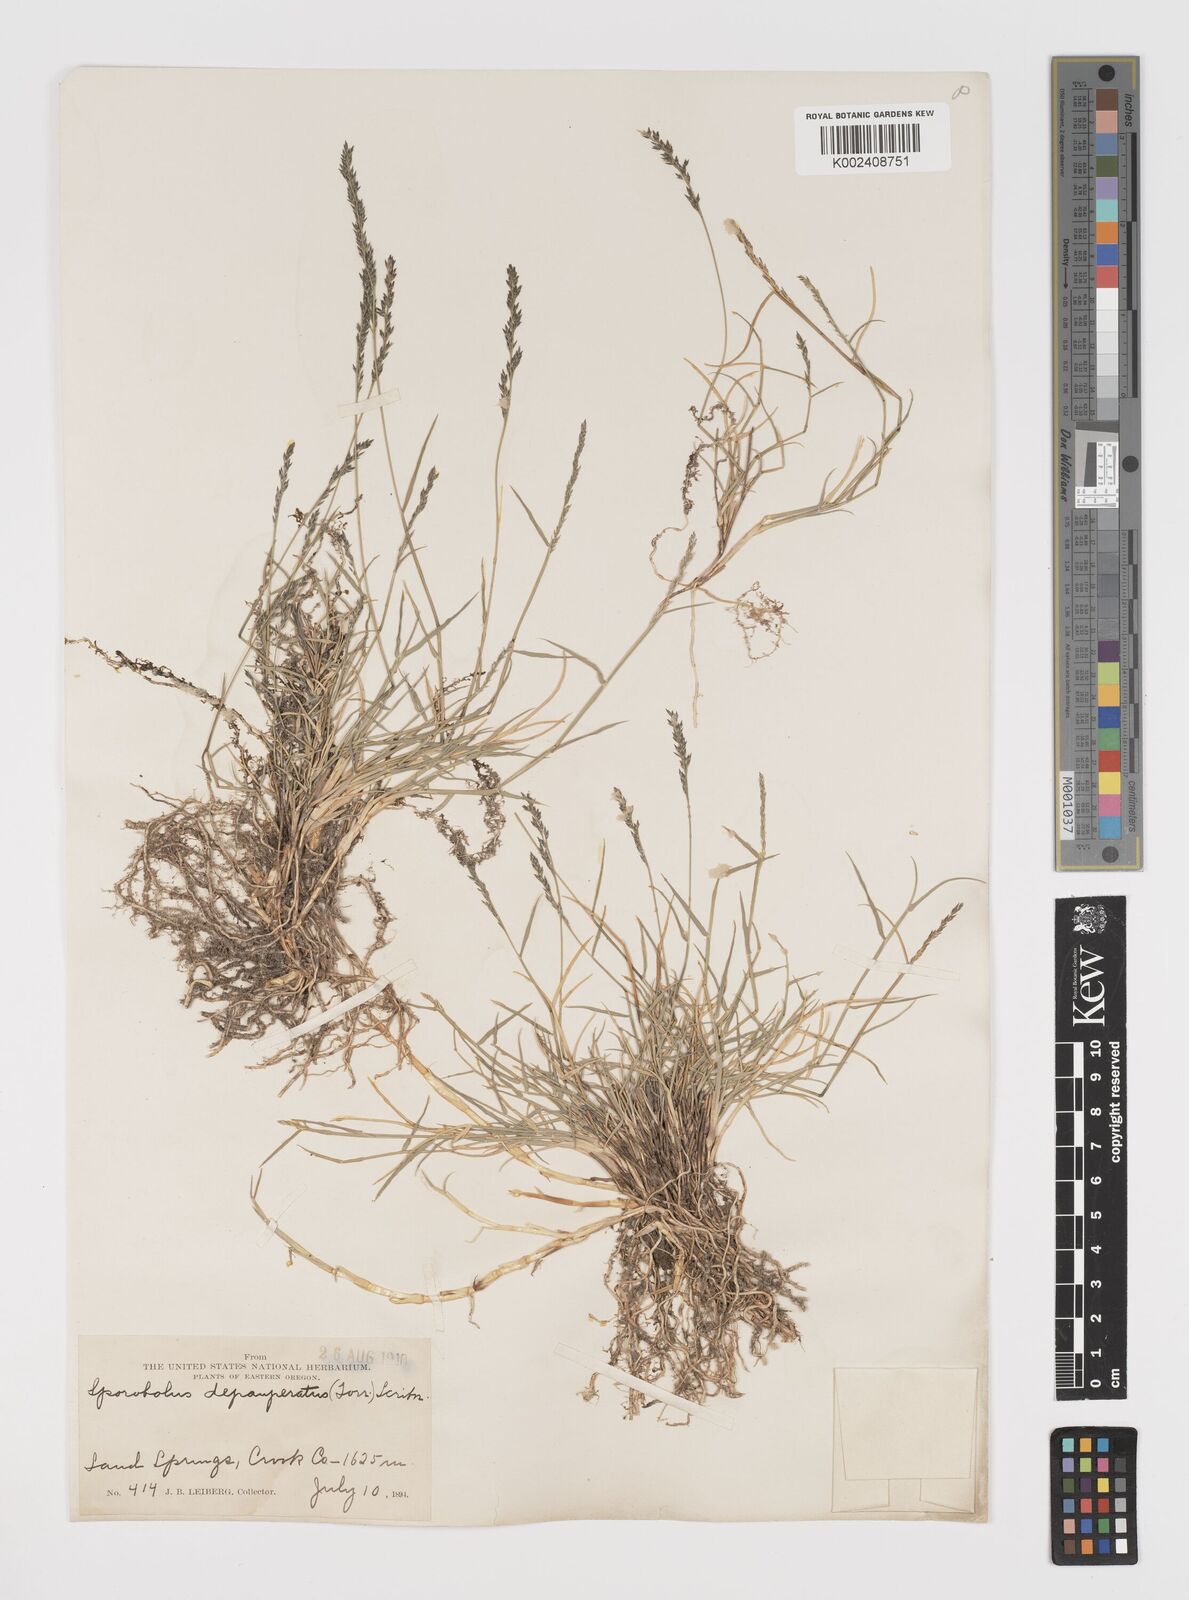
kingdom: Plantae
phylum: Tracheophyta
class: Liliopsida
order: Poales
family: Poaceae
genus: Muhlenbergia
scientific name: Muhlenbergia richardsonis
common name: Mat muhly
